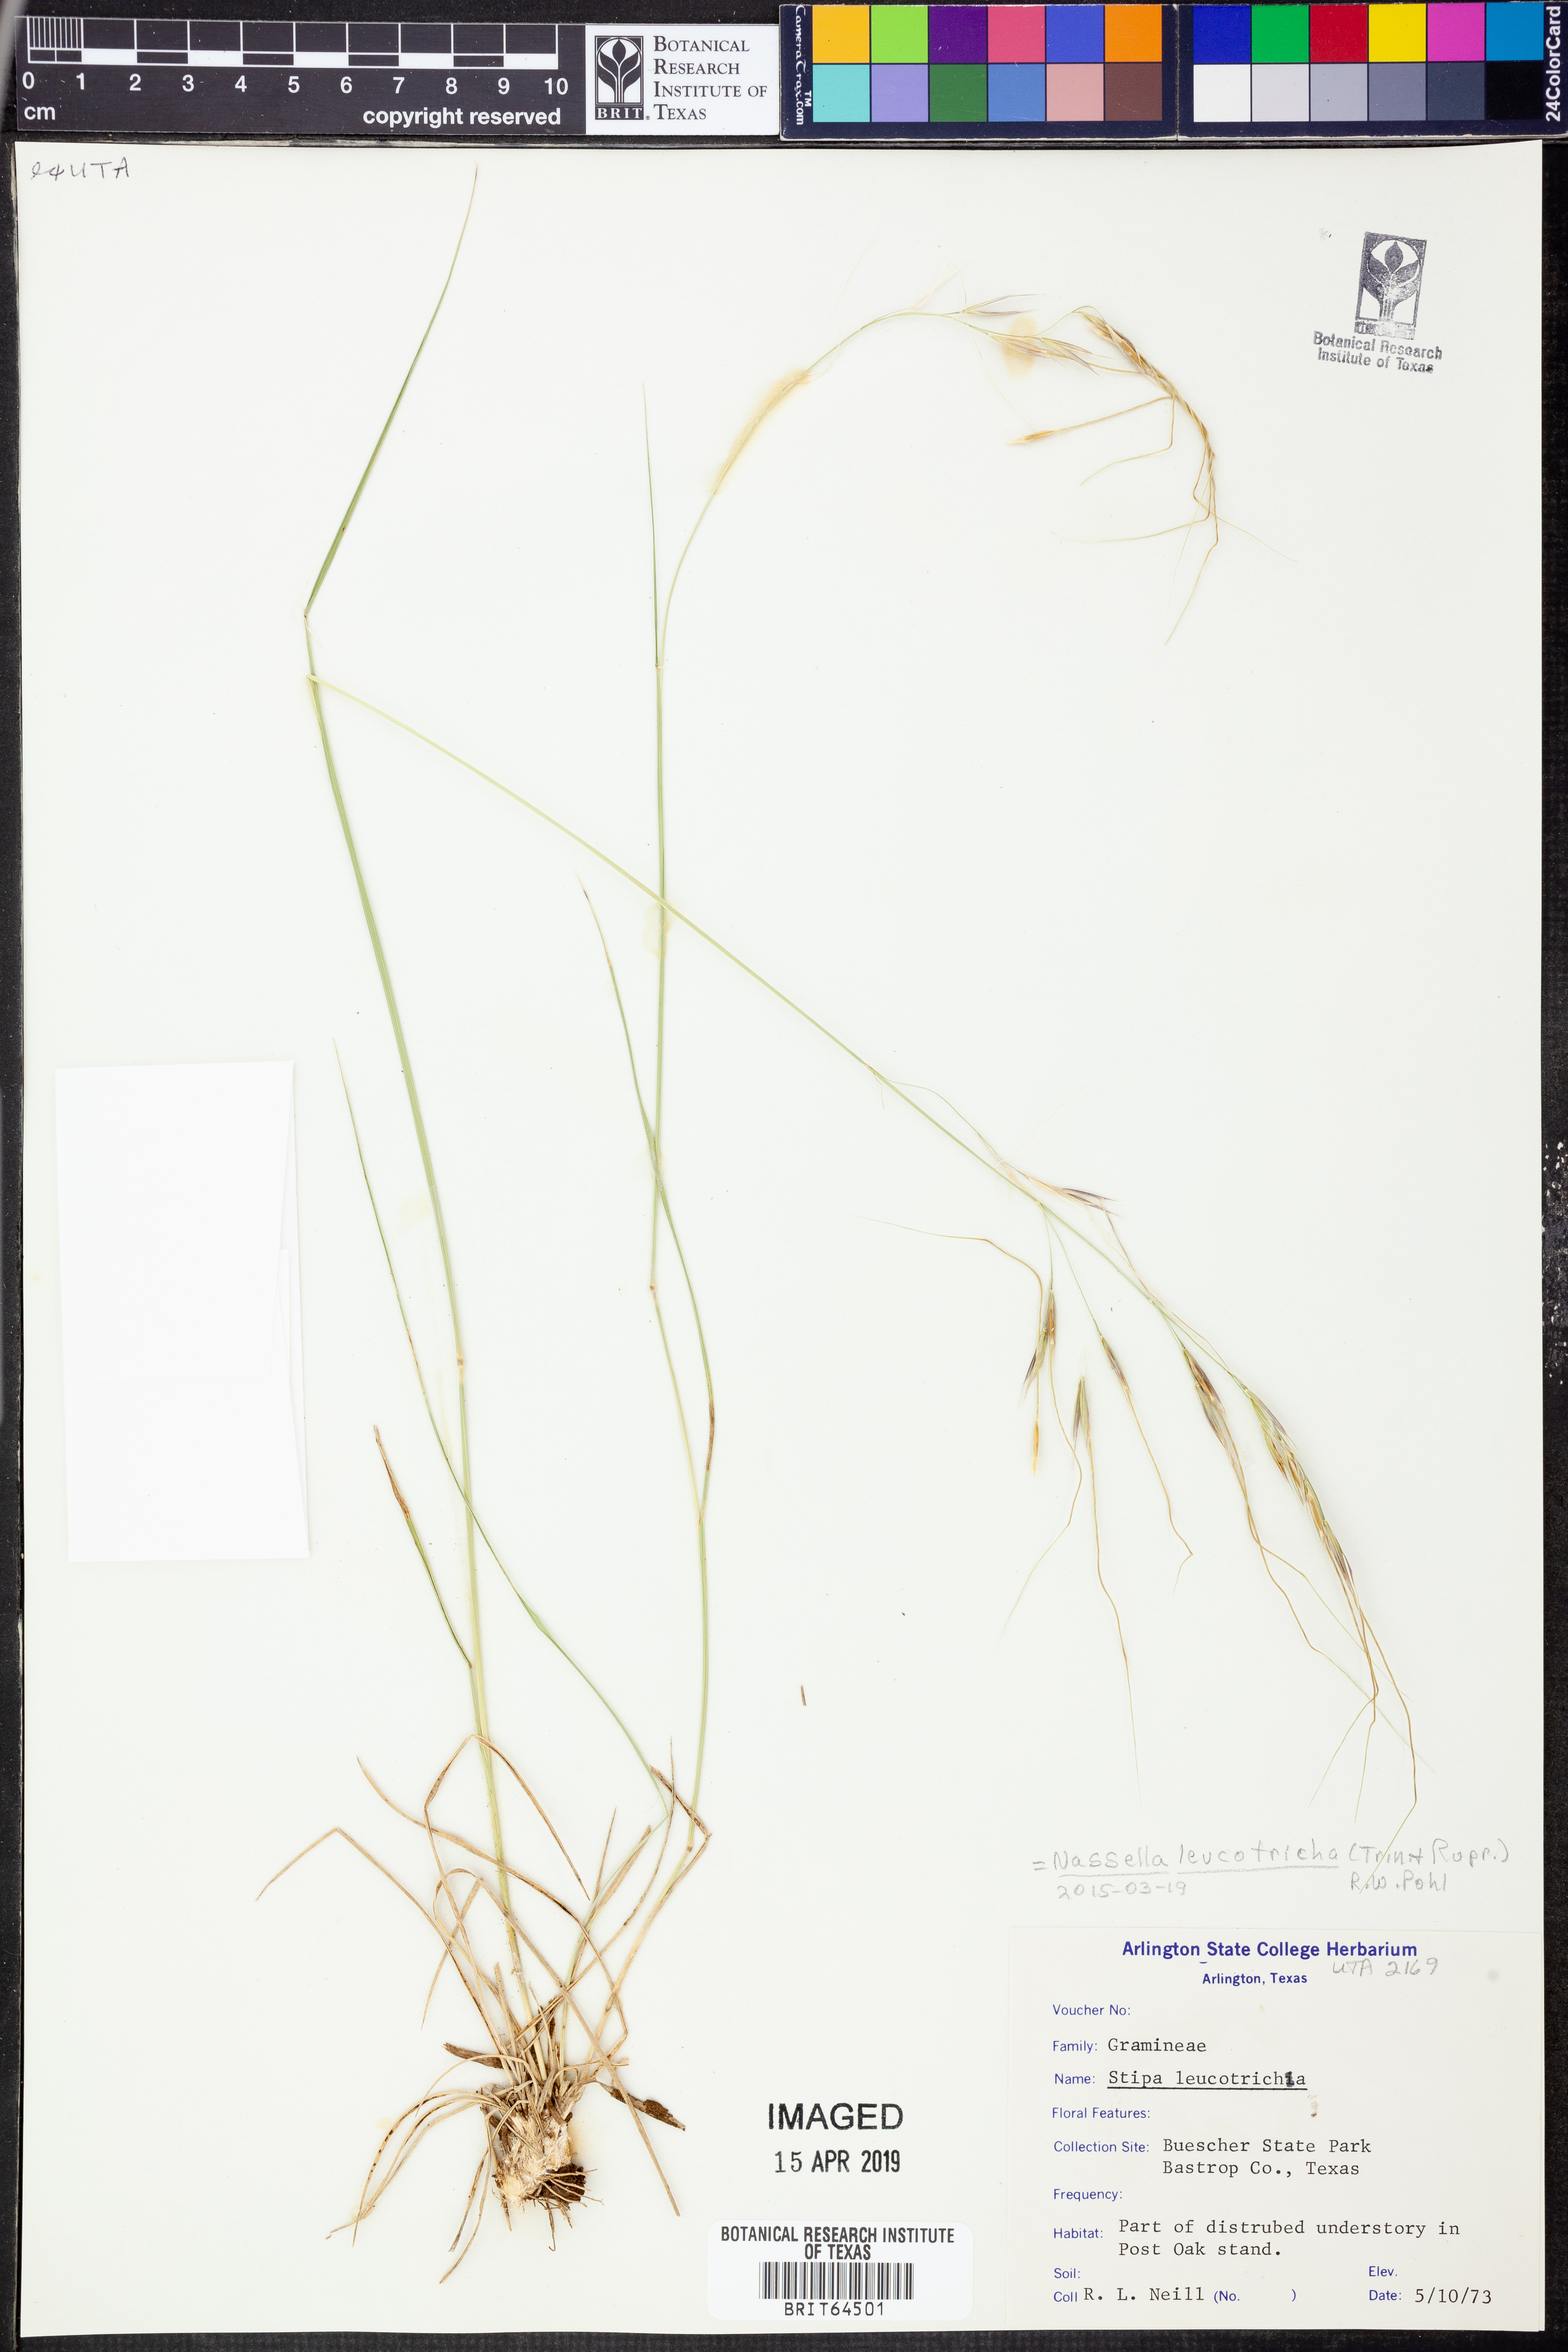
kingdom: Plantae
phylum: Tracheophyta
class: Liliopsida
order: Poales
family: Poaceae
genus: Nassella
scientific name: Nassella leucotricha
